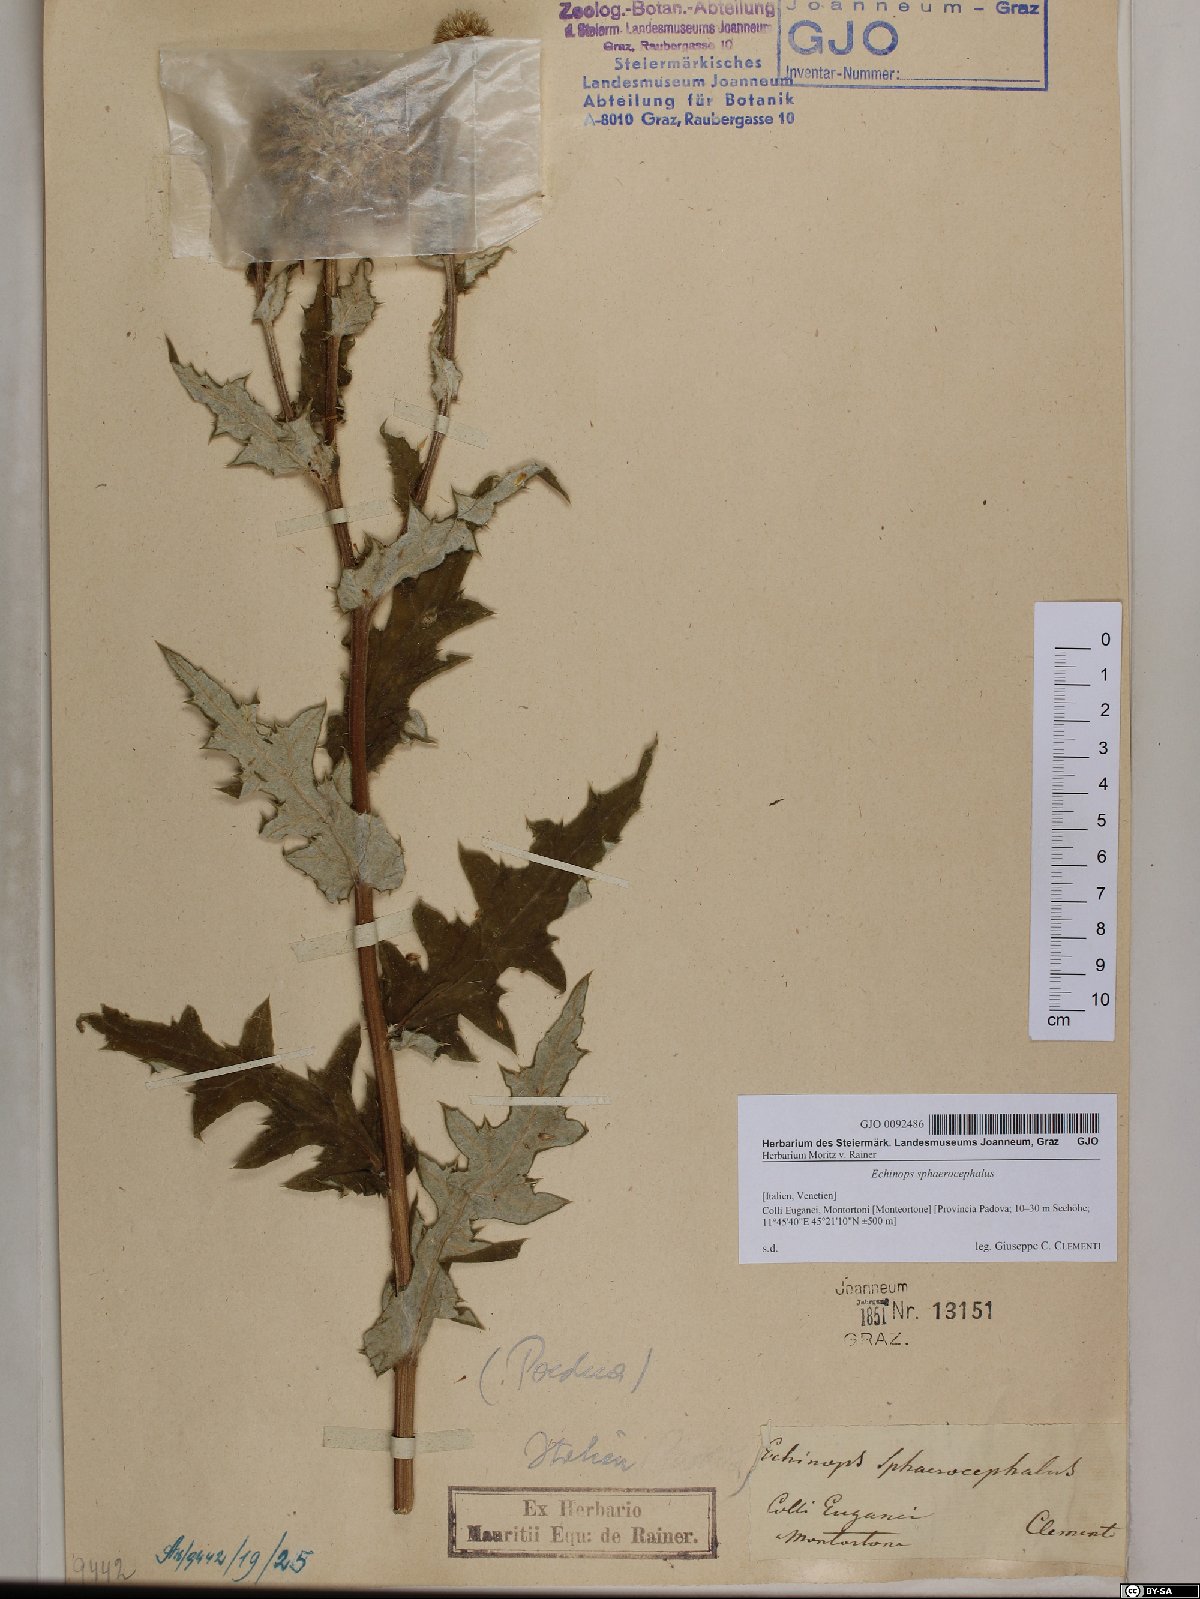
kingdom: Plantae
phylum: Tracheophyta
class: Magnoliopsida
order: Asterales
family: Asteraceae
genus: Echinops
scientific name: Echinops sphaerocephalus
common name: Glandular globe-thistle
